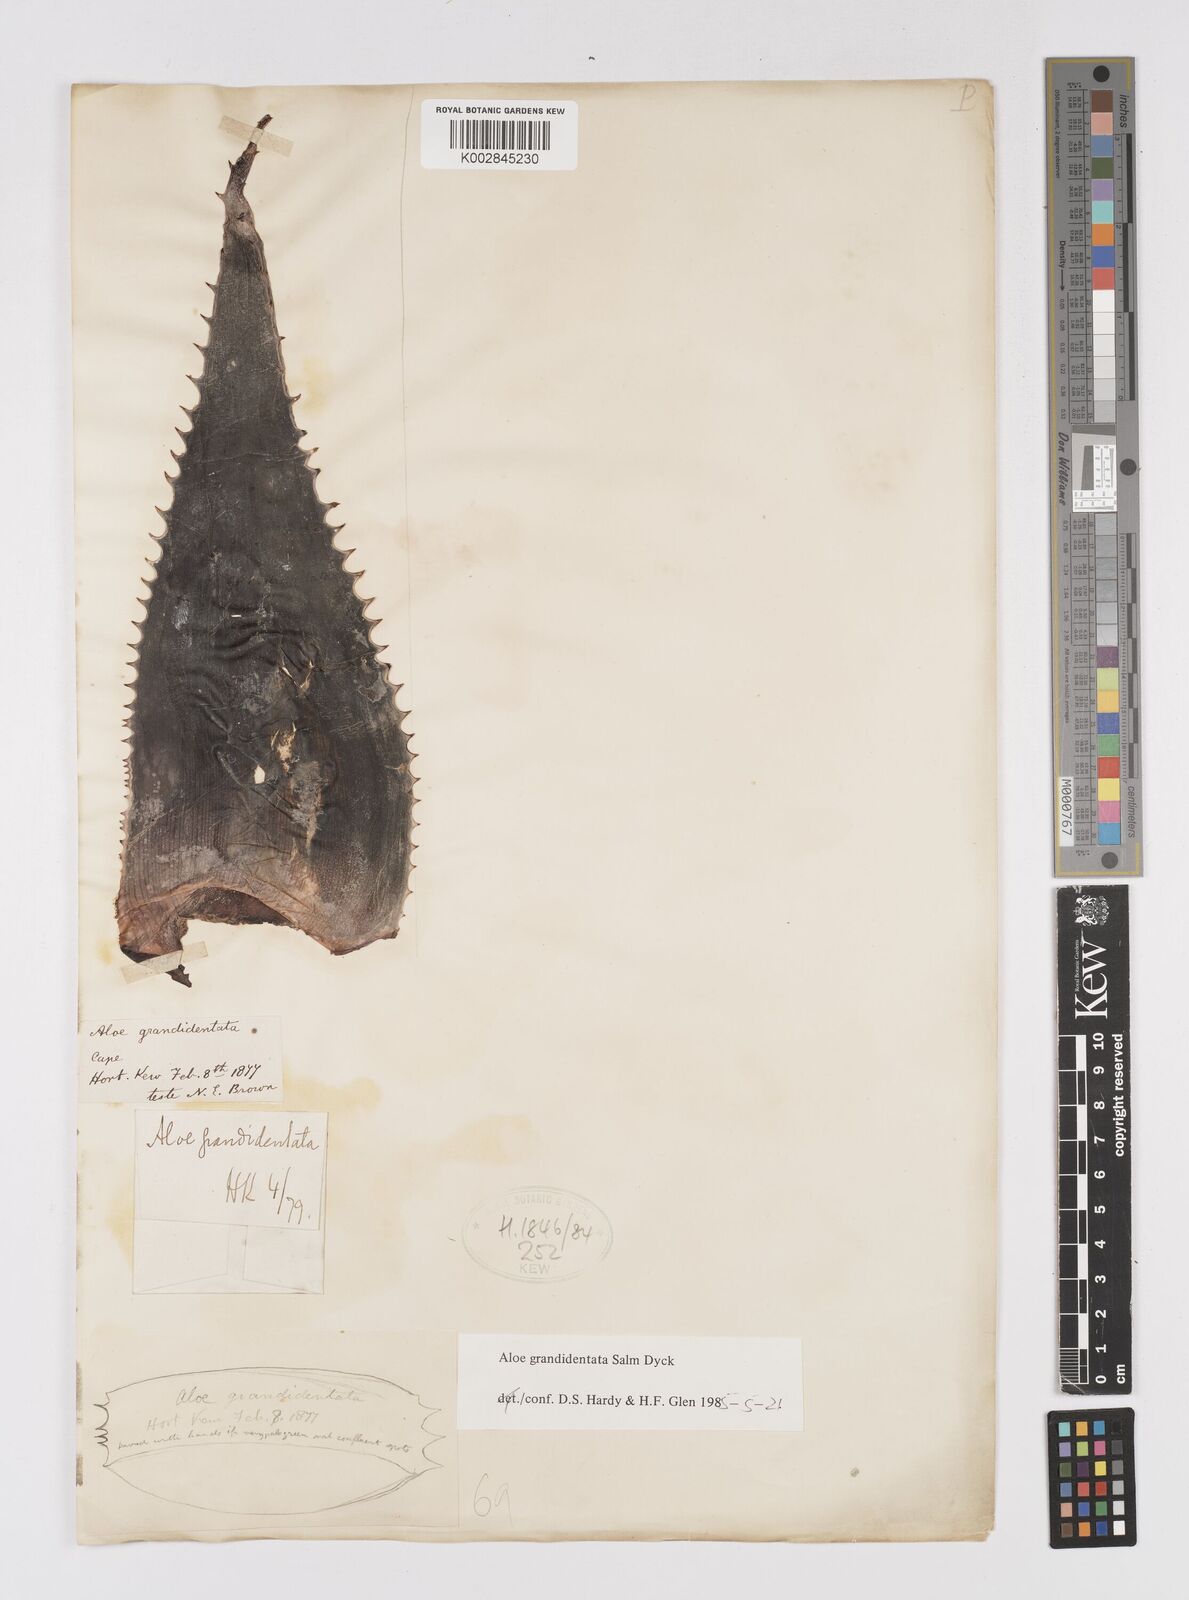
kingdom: Plantae
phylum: Tracheophyta
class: Liliopsida
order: Asparagales
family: Asphodelaceae
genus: Aloe
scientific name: Aloe grandidentata
